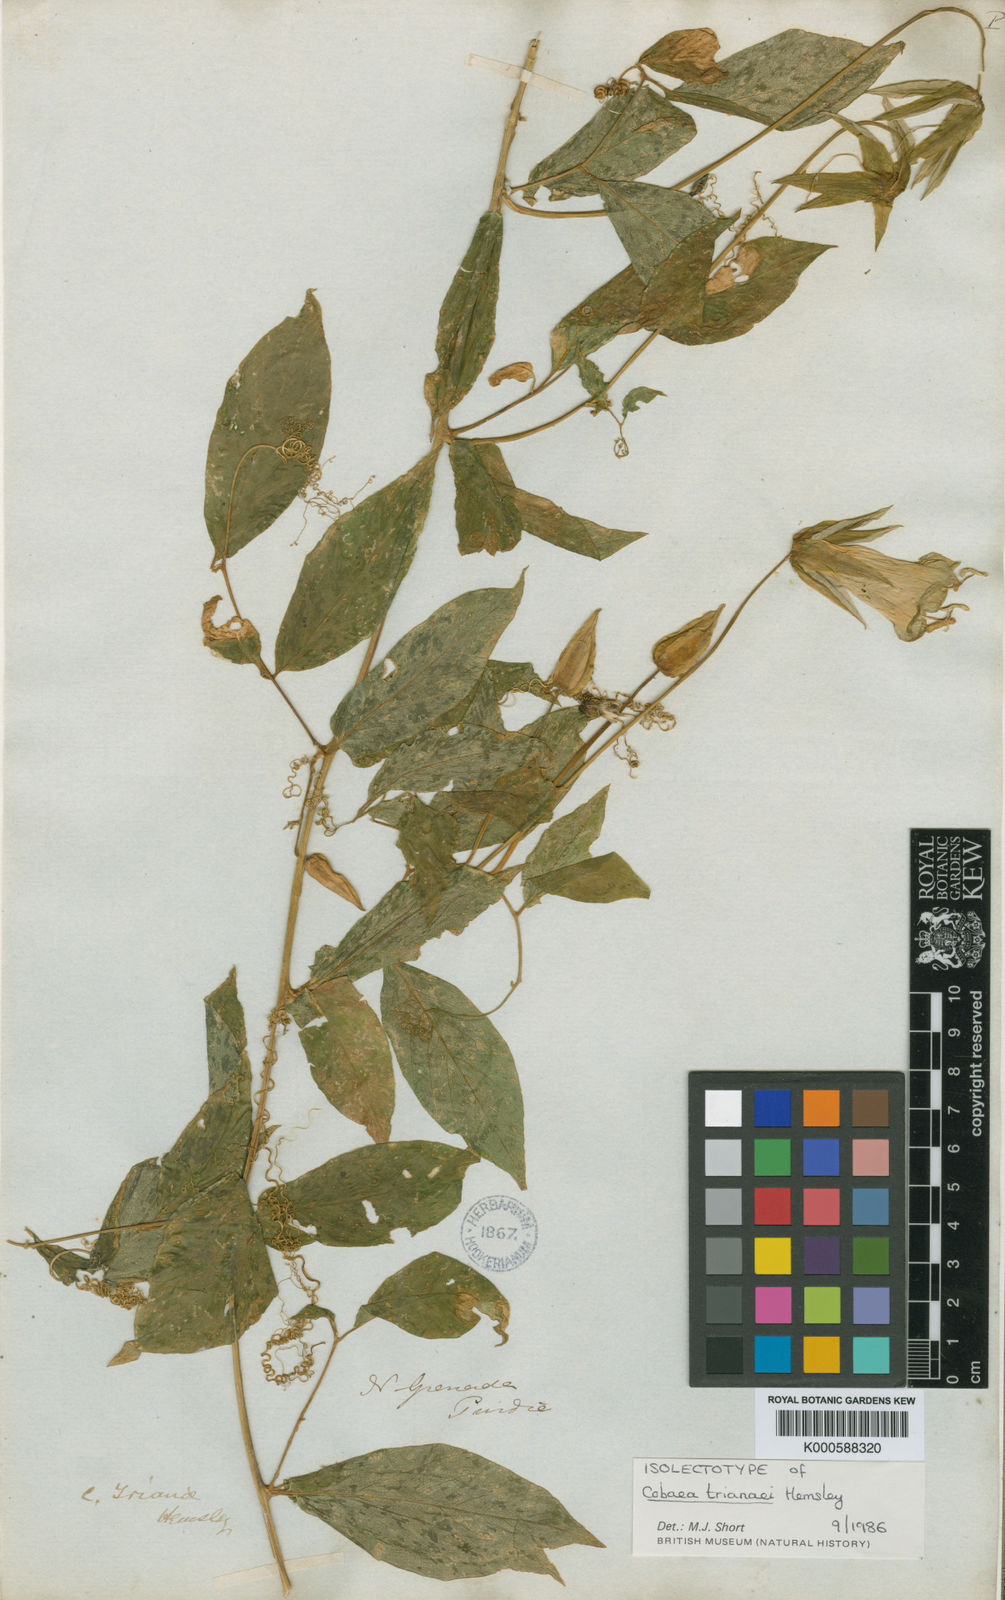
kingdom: Plantae
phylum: Tracheophyta
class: Magnoliopsida
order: Ericales
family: Polemoniaceae
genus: Cobaea
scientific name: Cobaea trianae
